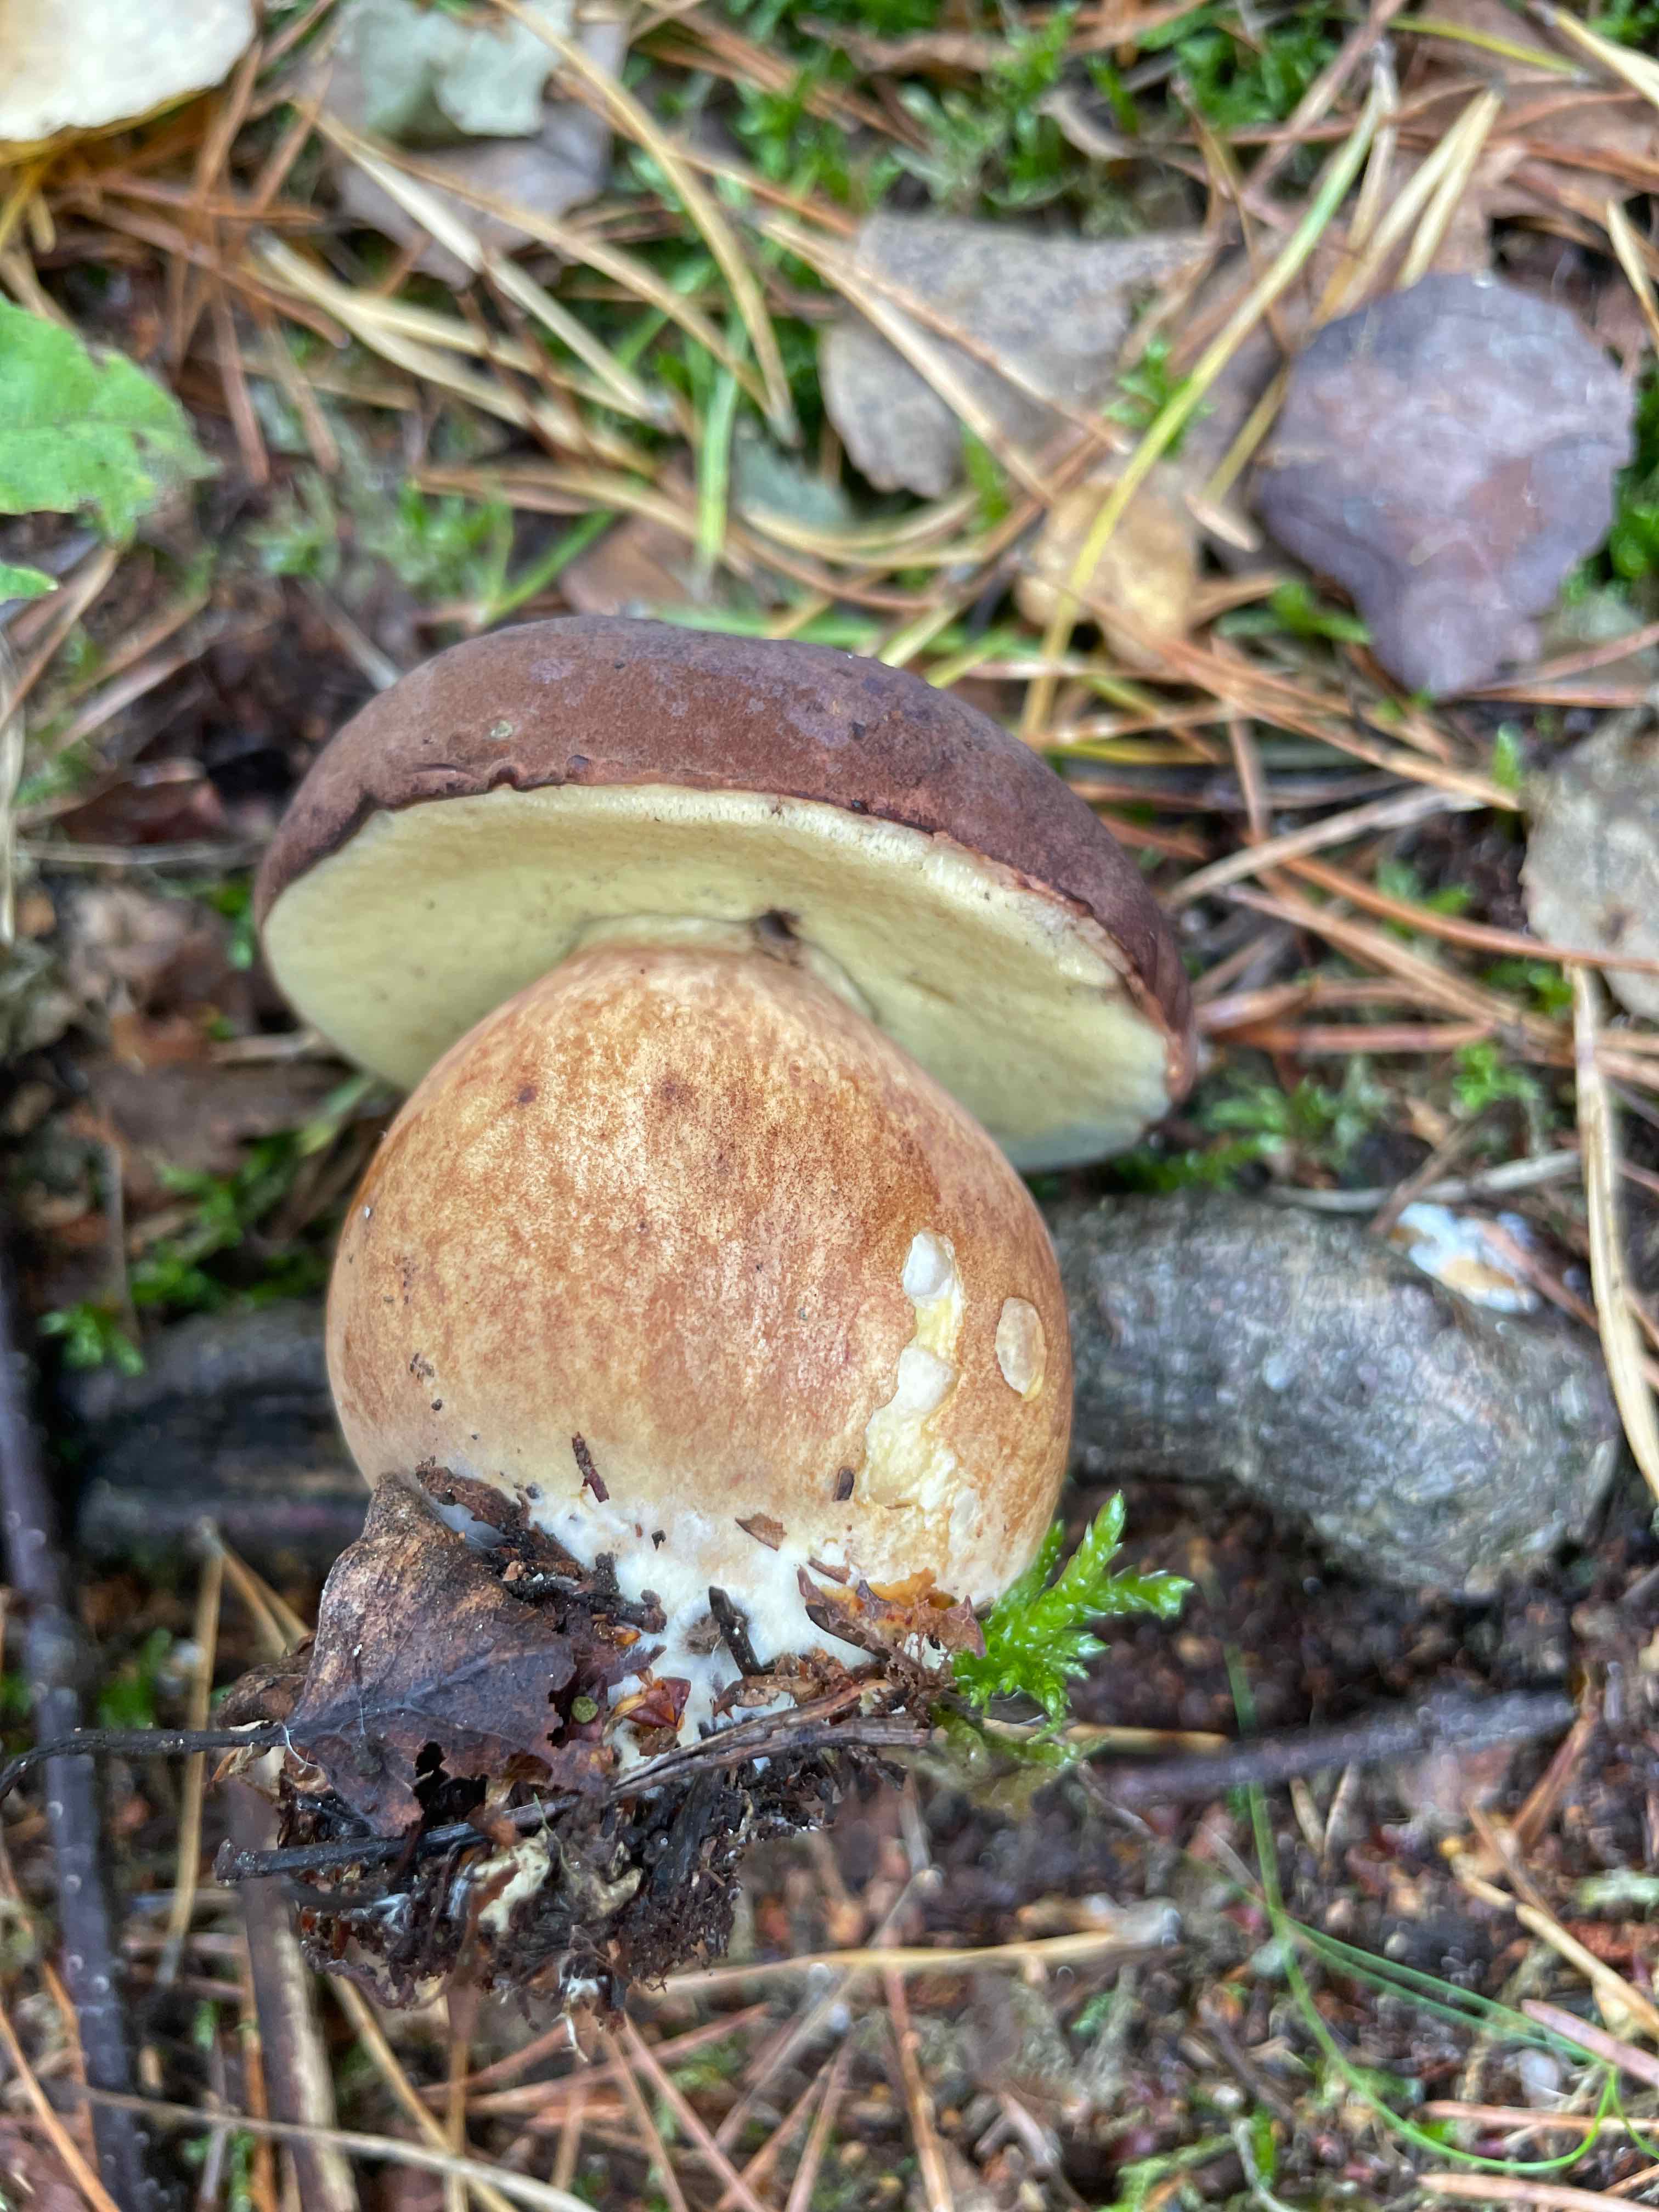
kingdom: Fungi
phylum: Basidiomycota
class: Agaricomycetes
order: Boletales
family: Boletaceae
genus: Imleria
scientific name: Imleria badia
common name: brunstokket rørhat
